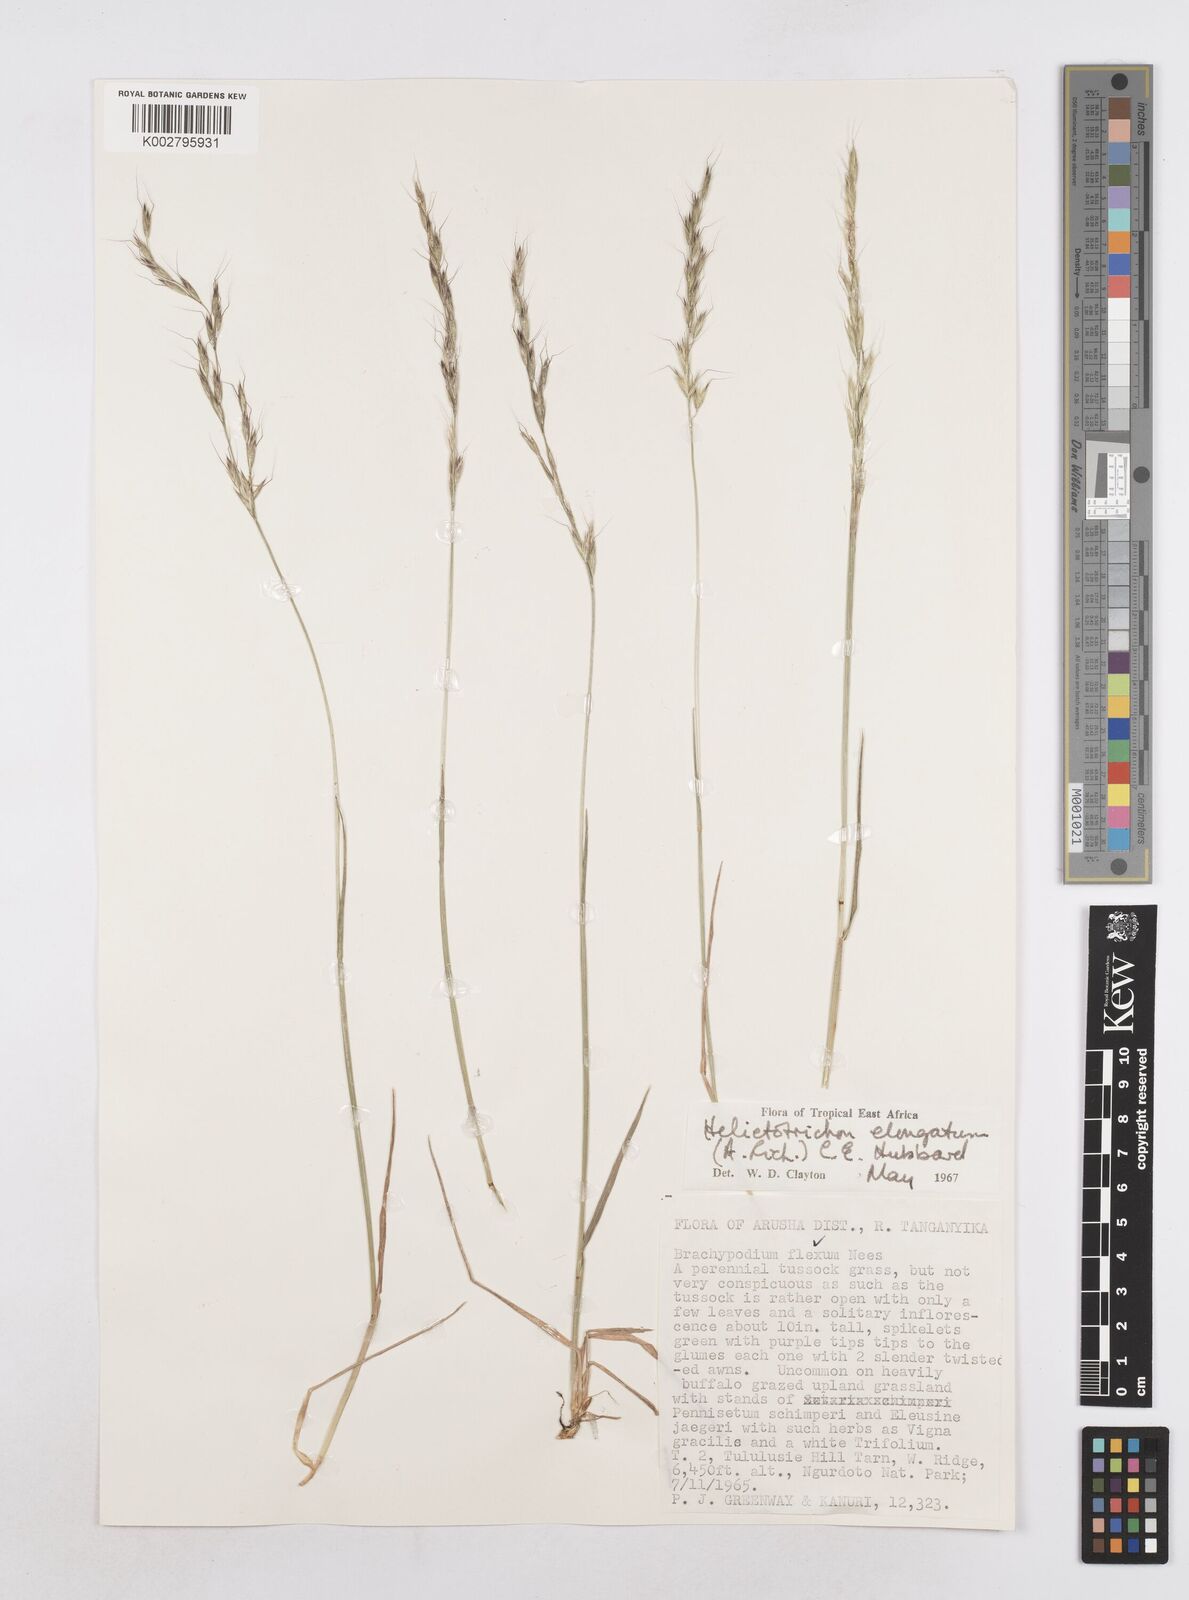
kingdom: Plantae
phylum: Tracheophyta
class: Liliopsida
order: Poales
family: Poaceae
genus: Trisetopsis
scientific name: Trisetopsis elongata
